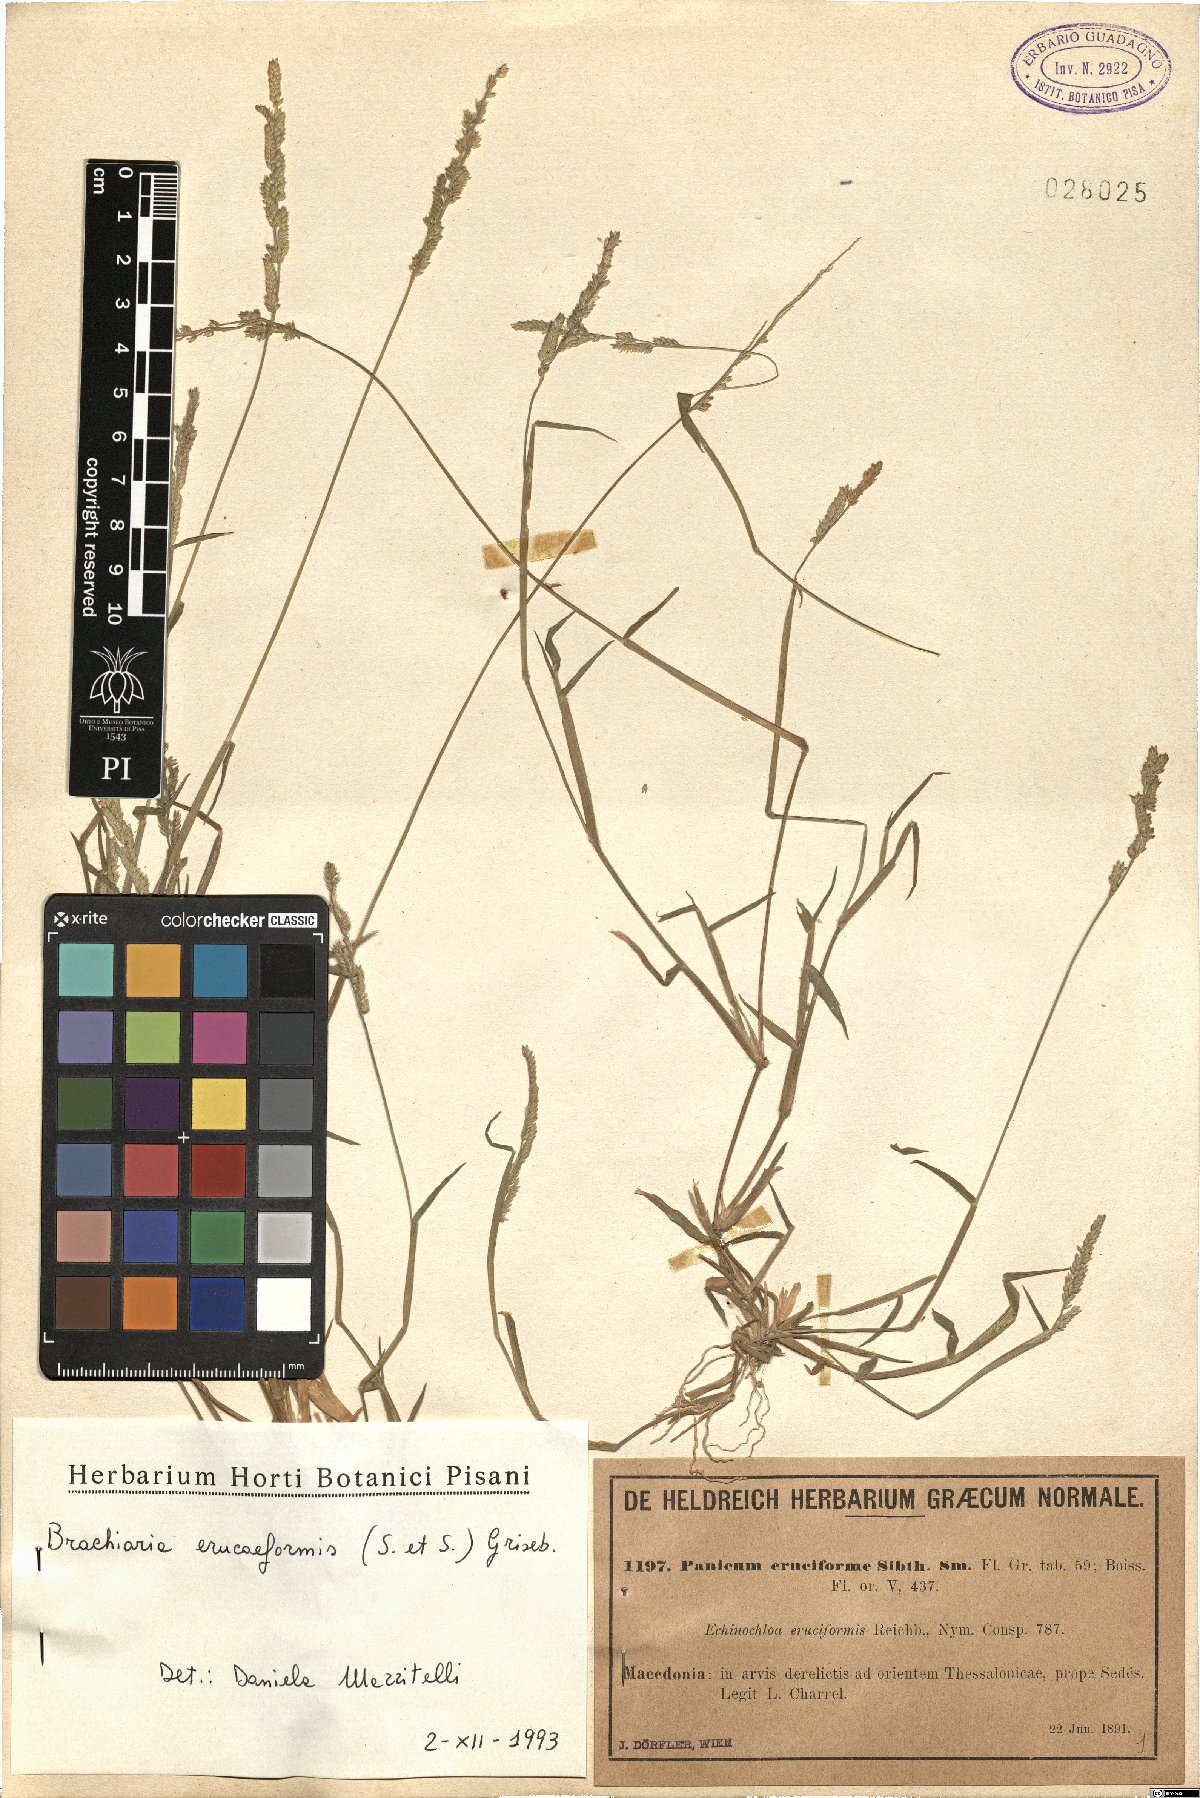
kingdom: Plantae
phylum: Tracheophyta
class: Liliopsida
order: Poales
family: Poaceae
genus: Moorochloa
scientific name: Moorochloa eruciformis
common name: Sweet signalgrass
